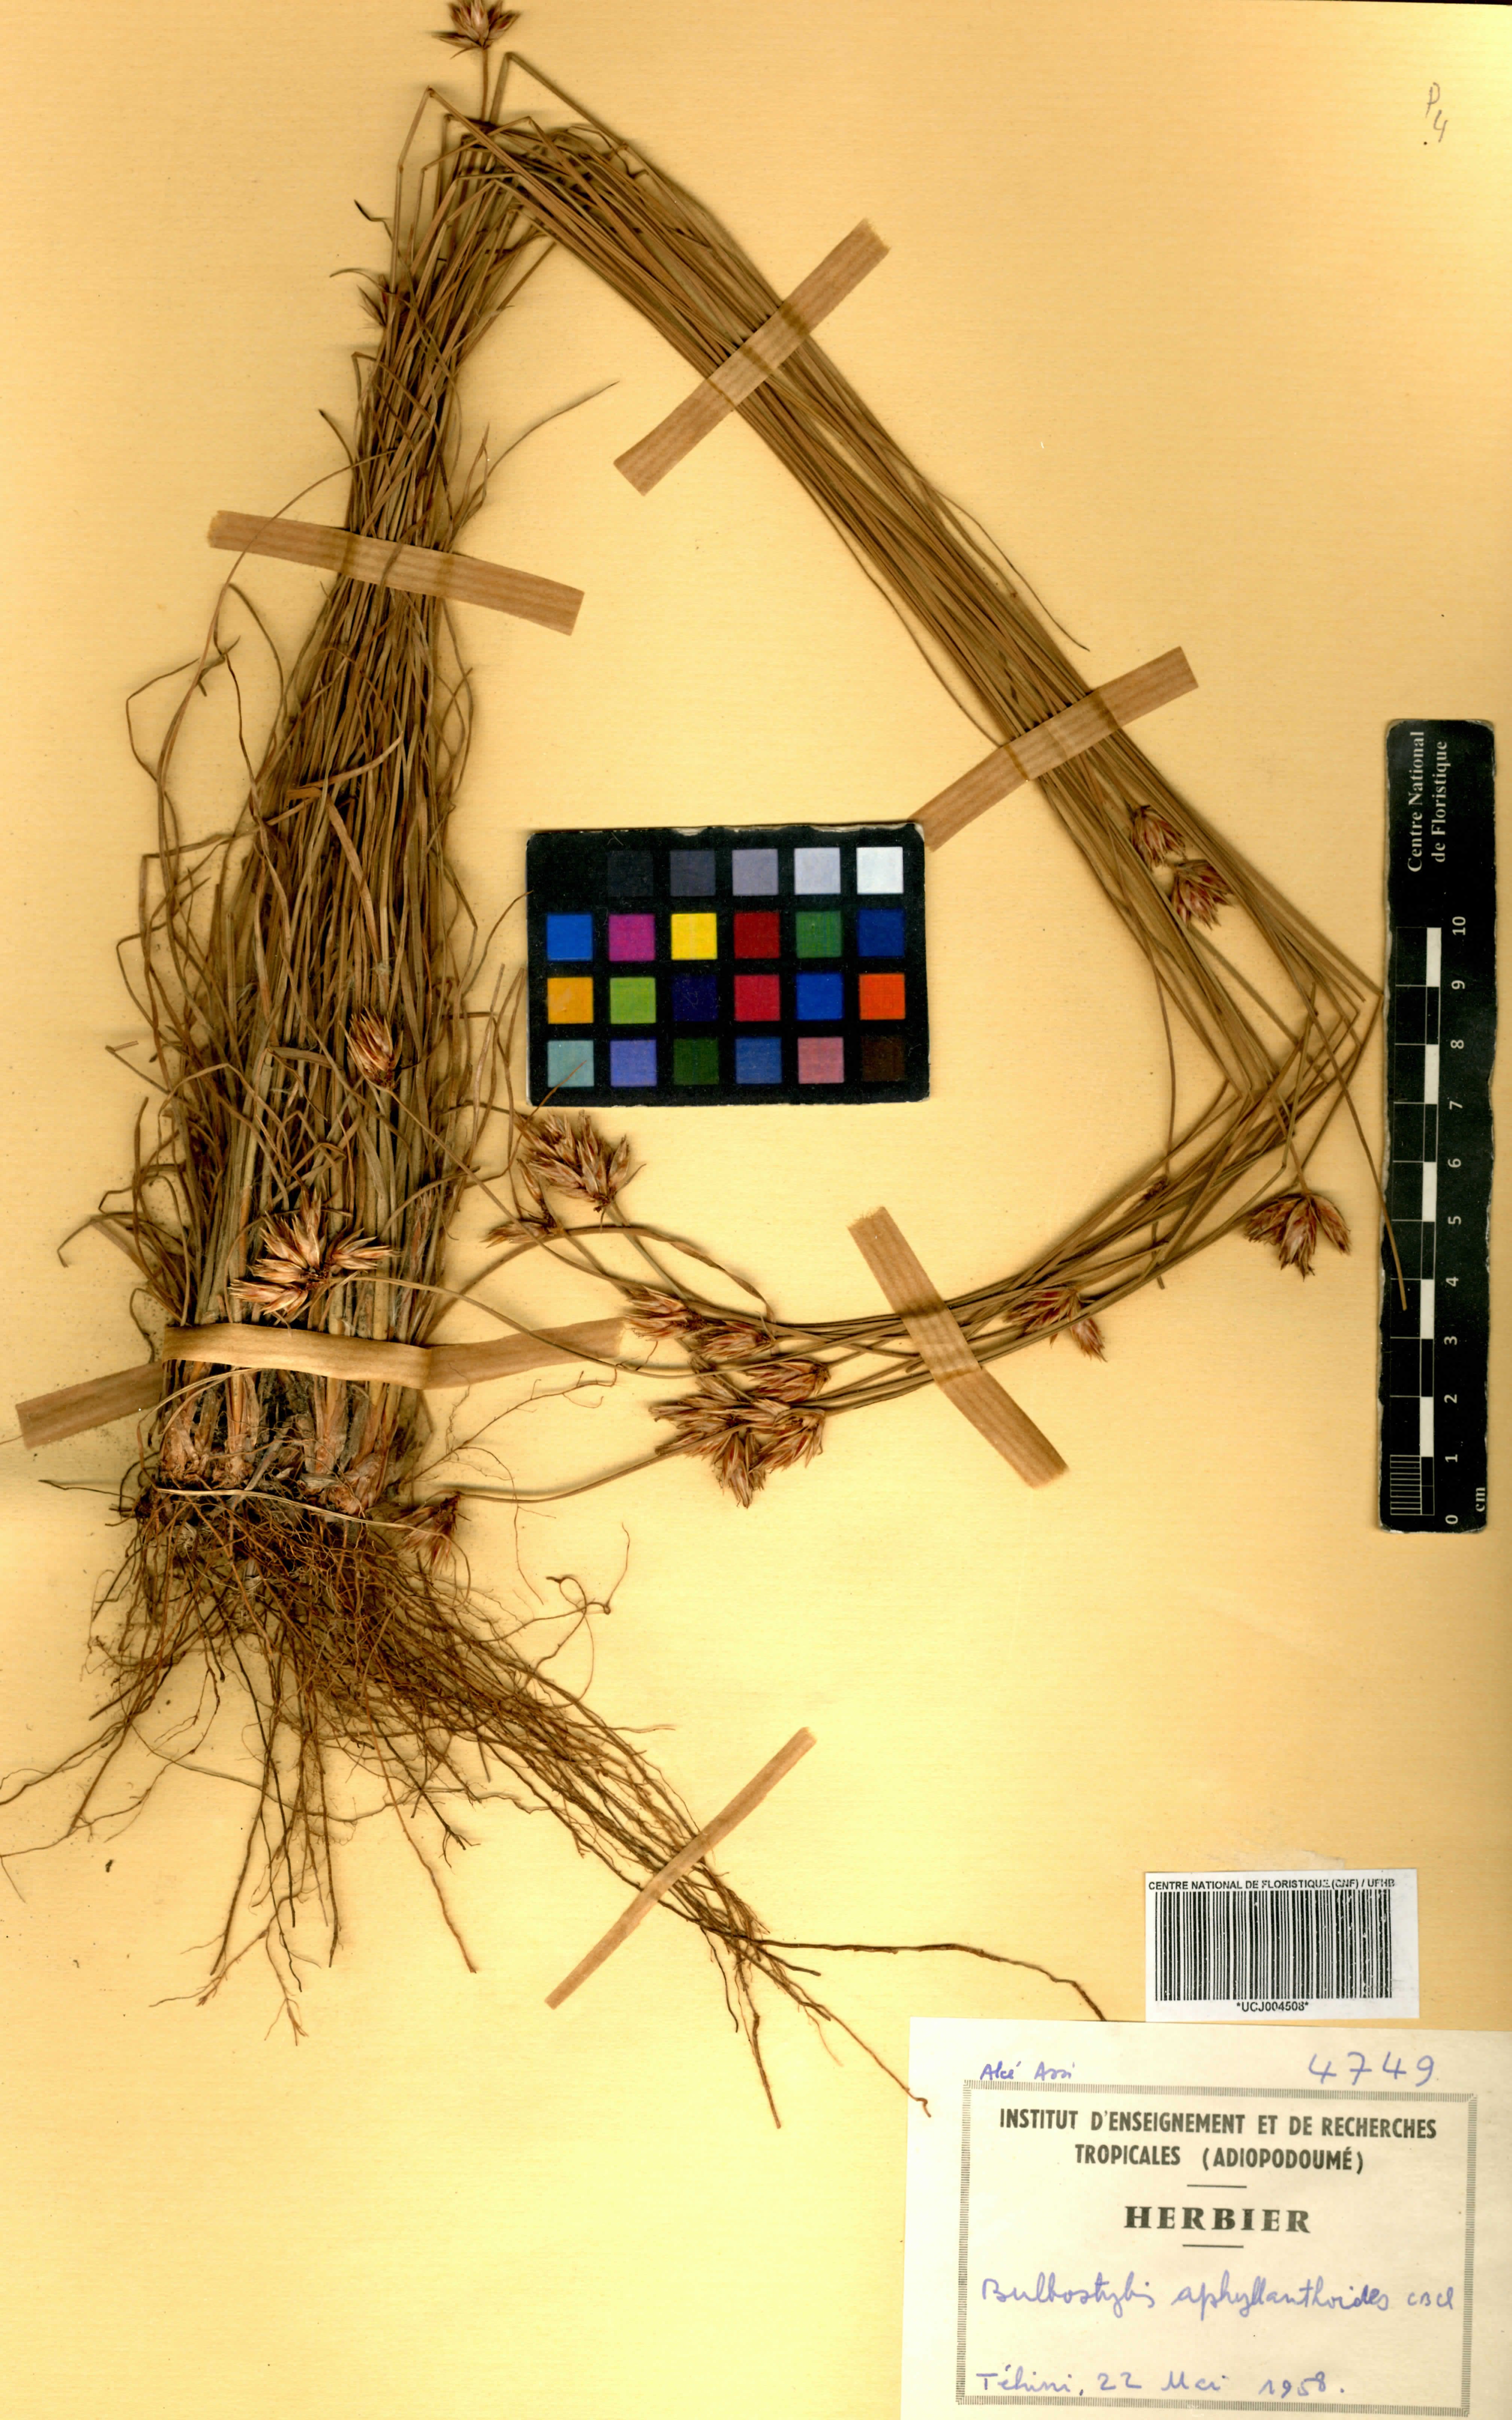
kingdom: Plantae
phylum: Tracheophyta
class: Liliopsida
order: Poales
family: Cyperaceae
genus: Bulbostylis
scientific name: Bulbostylis pilosa
